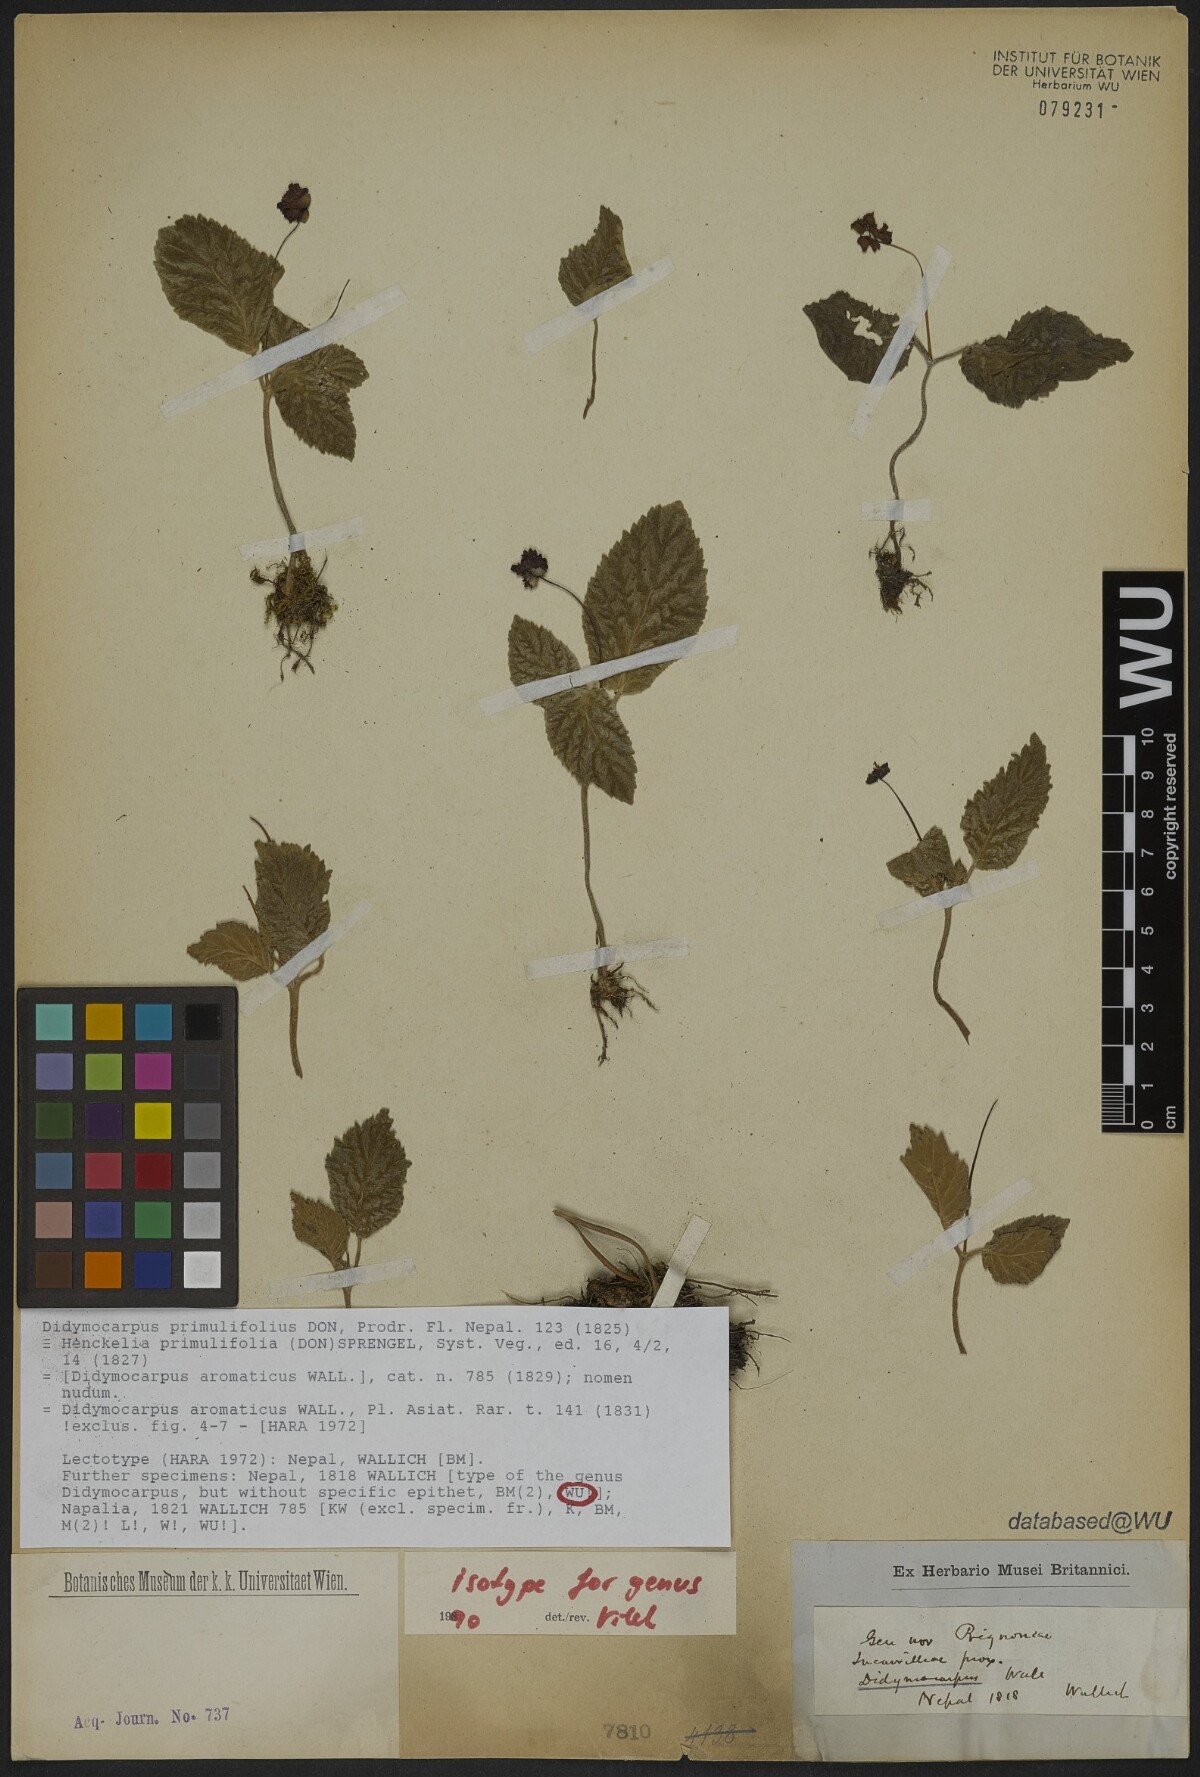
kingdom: Plantae
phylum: Tracheophyta
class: Magnoliopsida
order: Lamiales
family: Gesneriaceae
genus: Didymocarpus
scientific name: Didymocarpus primulifolius
